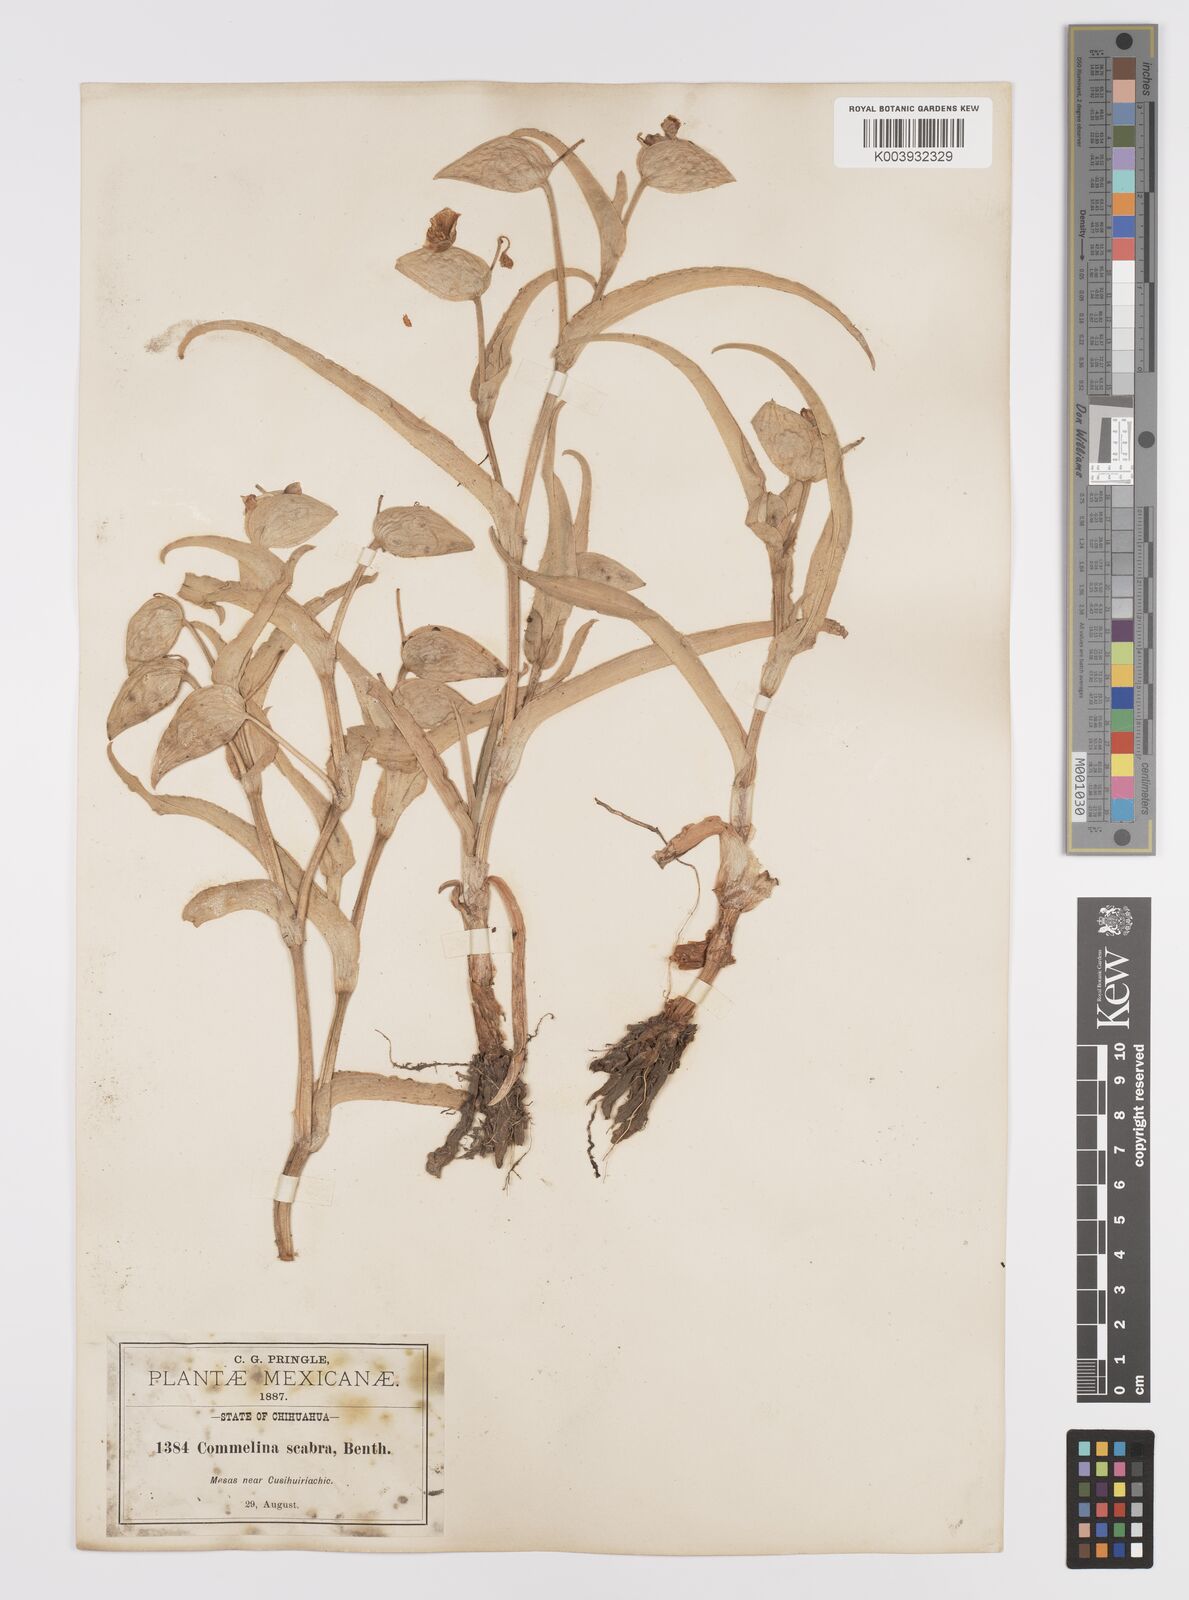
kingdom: Plantae
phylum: Tracheophyta
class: Liliopsida
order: Commelinales
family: Commelinaceae
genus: Commelina
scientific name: Commelina scabra
